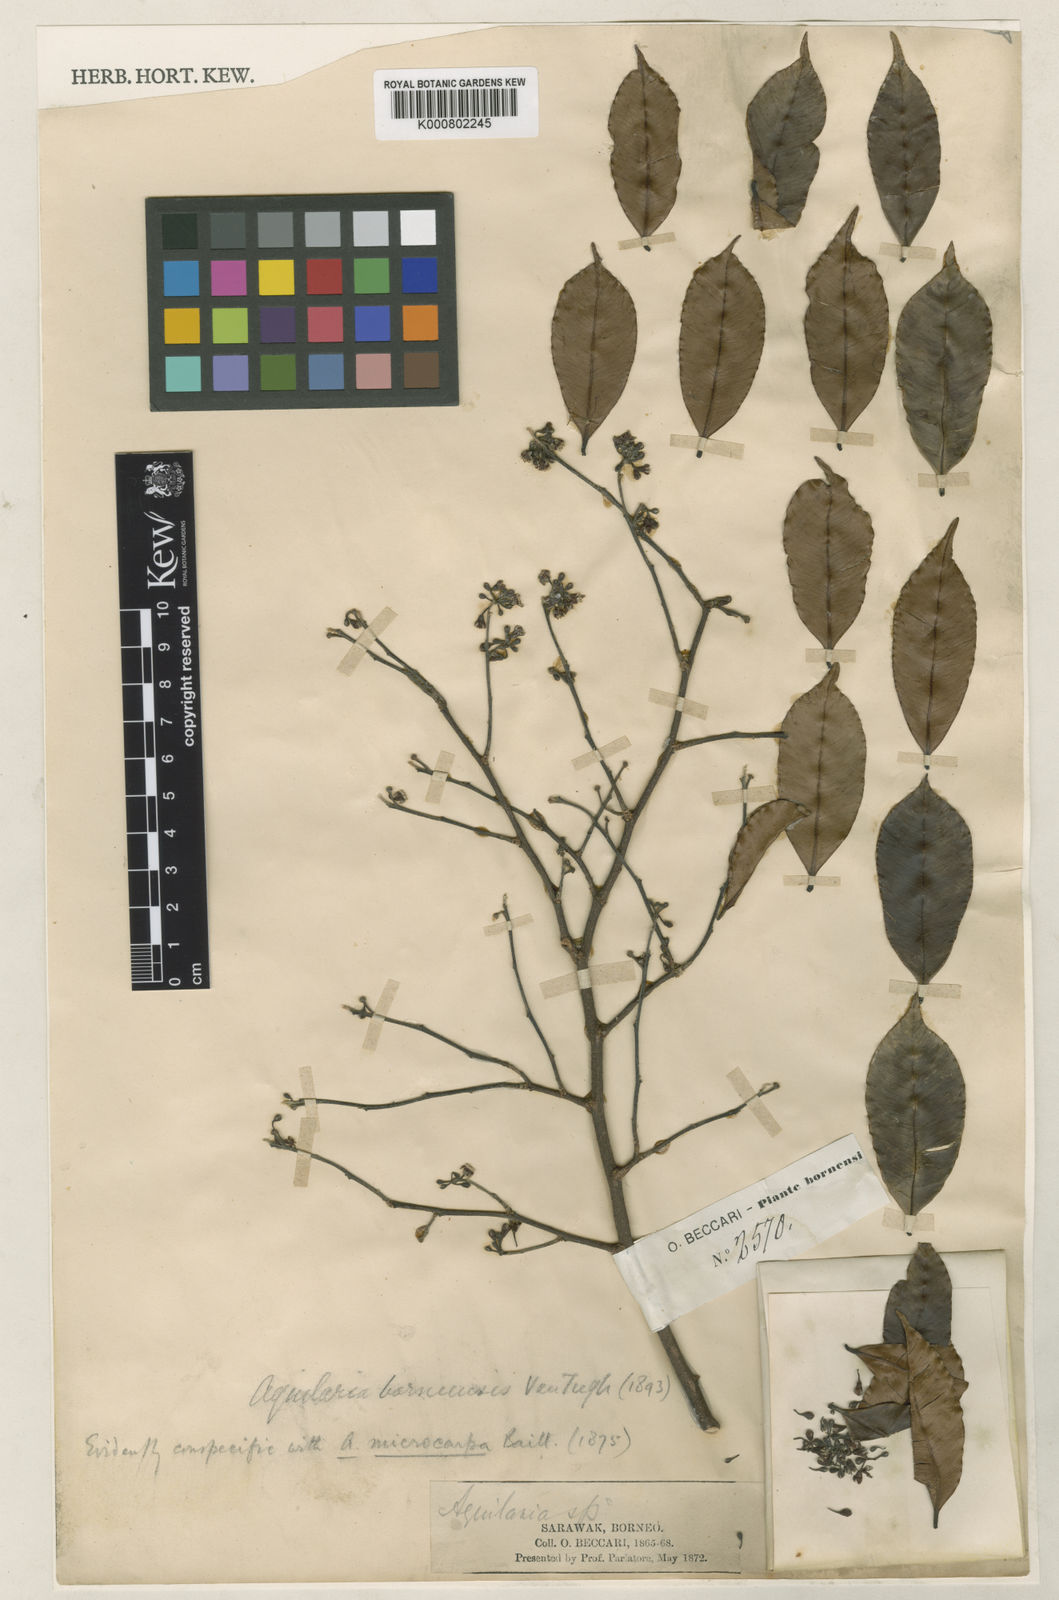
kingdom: Plantae
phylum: Tracheophyta
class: Magnoliopsida
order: Malvales
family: Thymelaeaceae
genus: Aquilaria
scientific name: Aquilaria microcarpa
